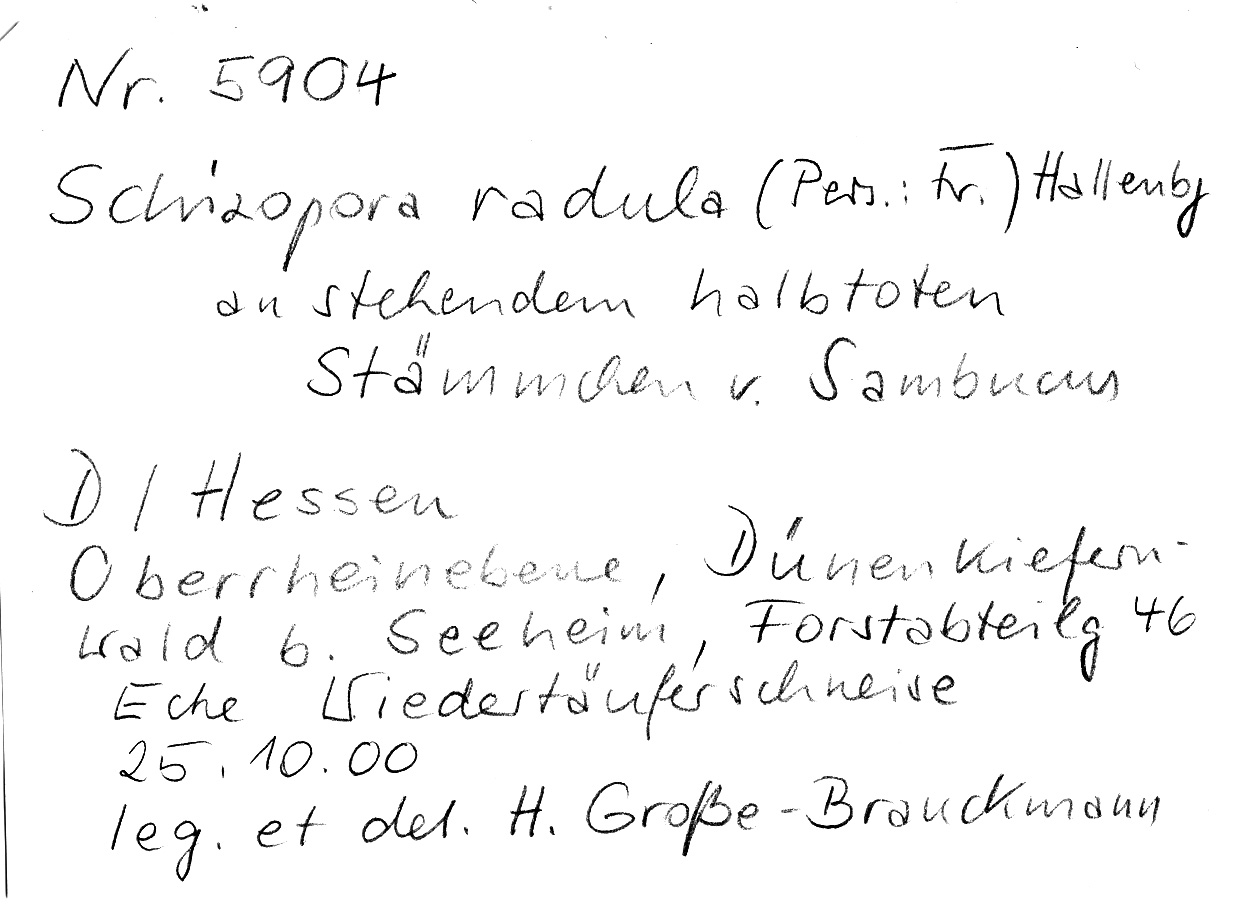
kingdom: Plantae
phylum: Tracheophyta
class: Magnoliopsida
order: Dipsacales
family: Viburnaceae
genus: Sambucus
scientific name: Sambucus
